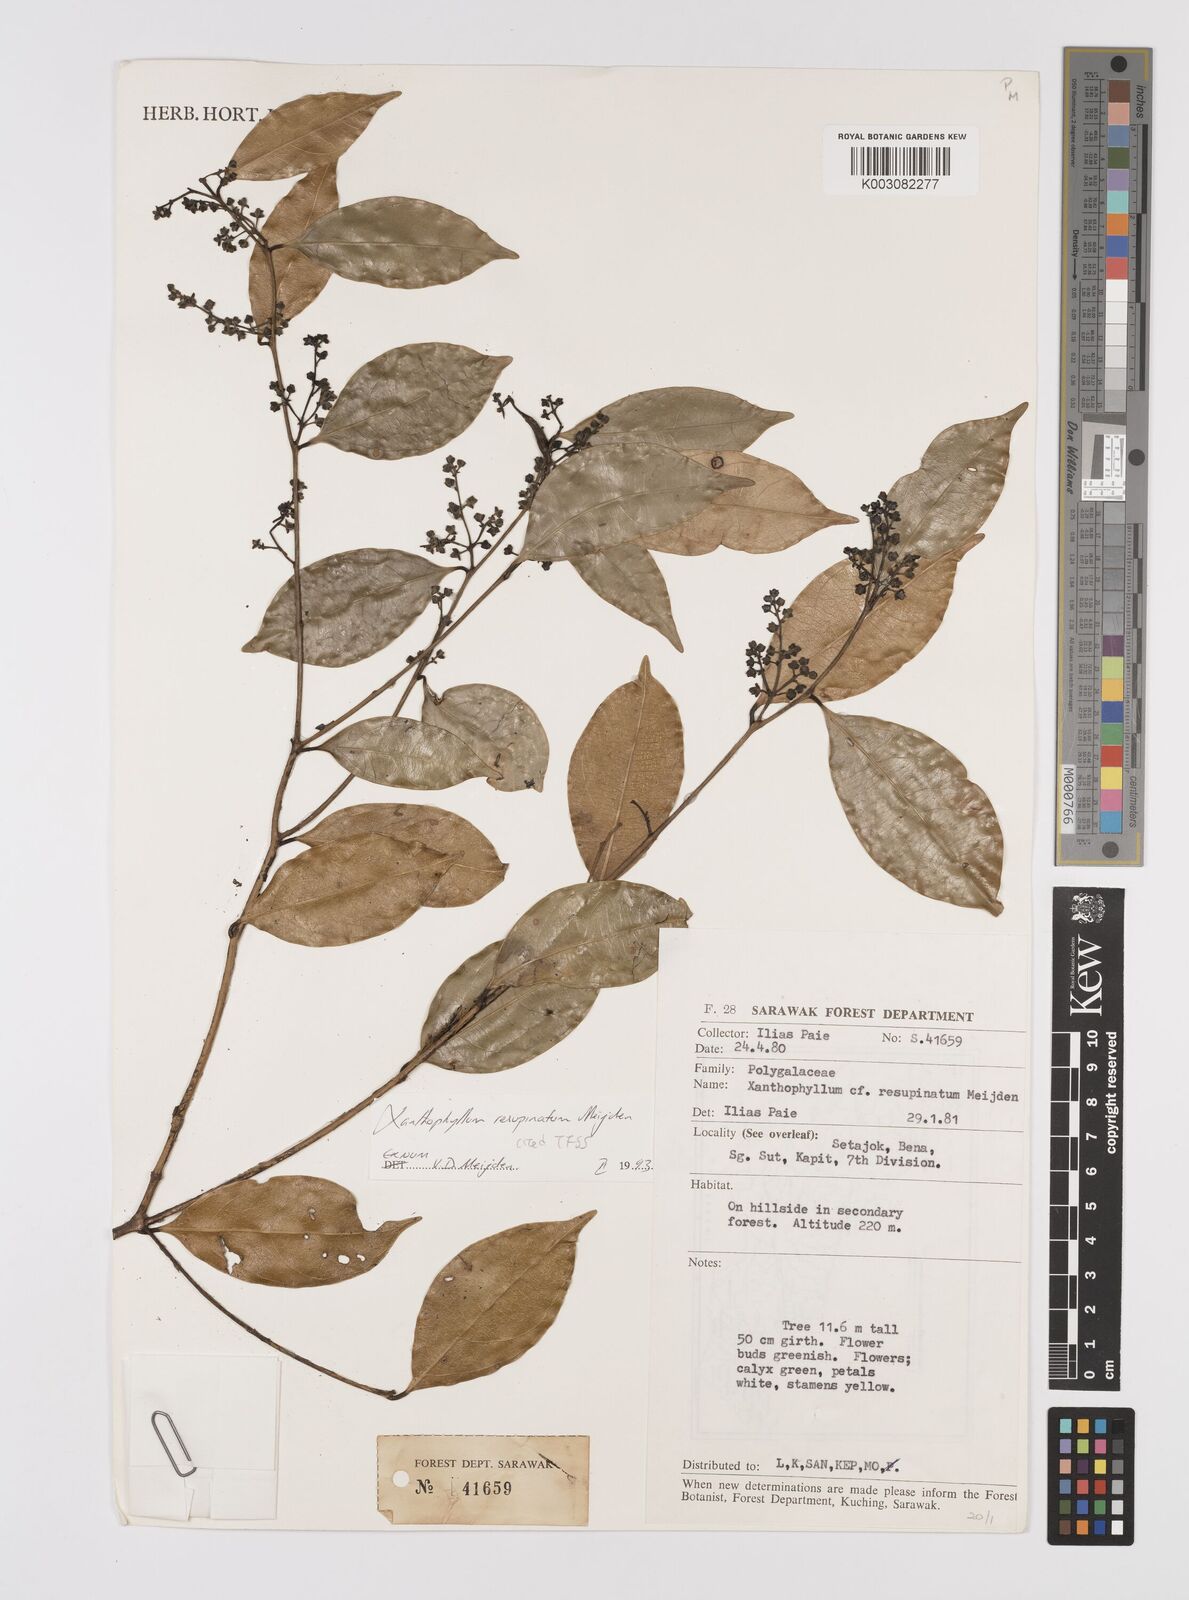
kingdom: Plantae
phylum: Tracheophyta
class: Magnoliopsida
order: Fabales
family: Polygalaceae
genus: Xanthophyllum
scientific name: Xanthophyllum resupinatum
